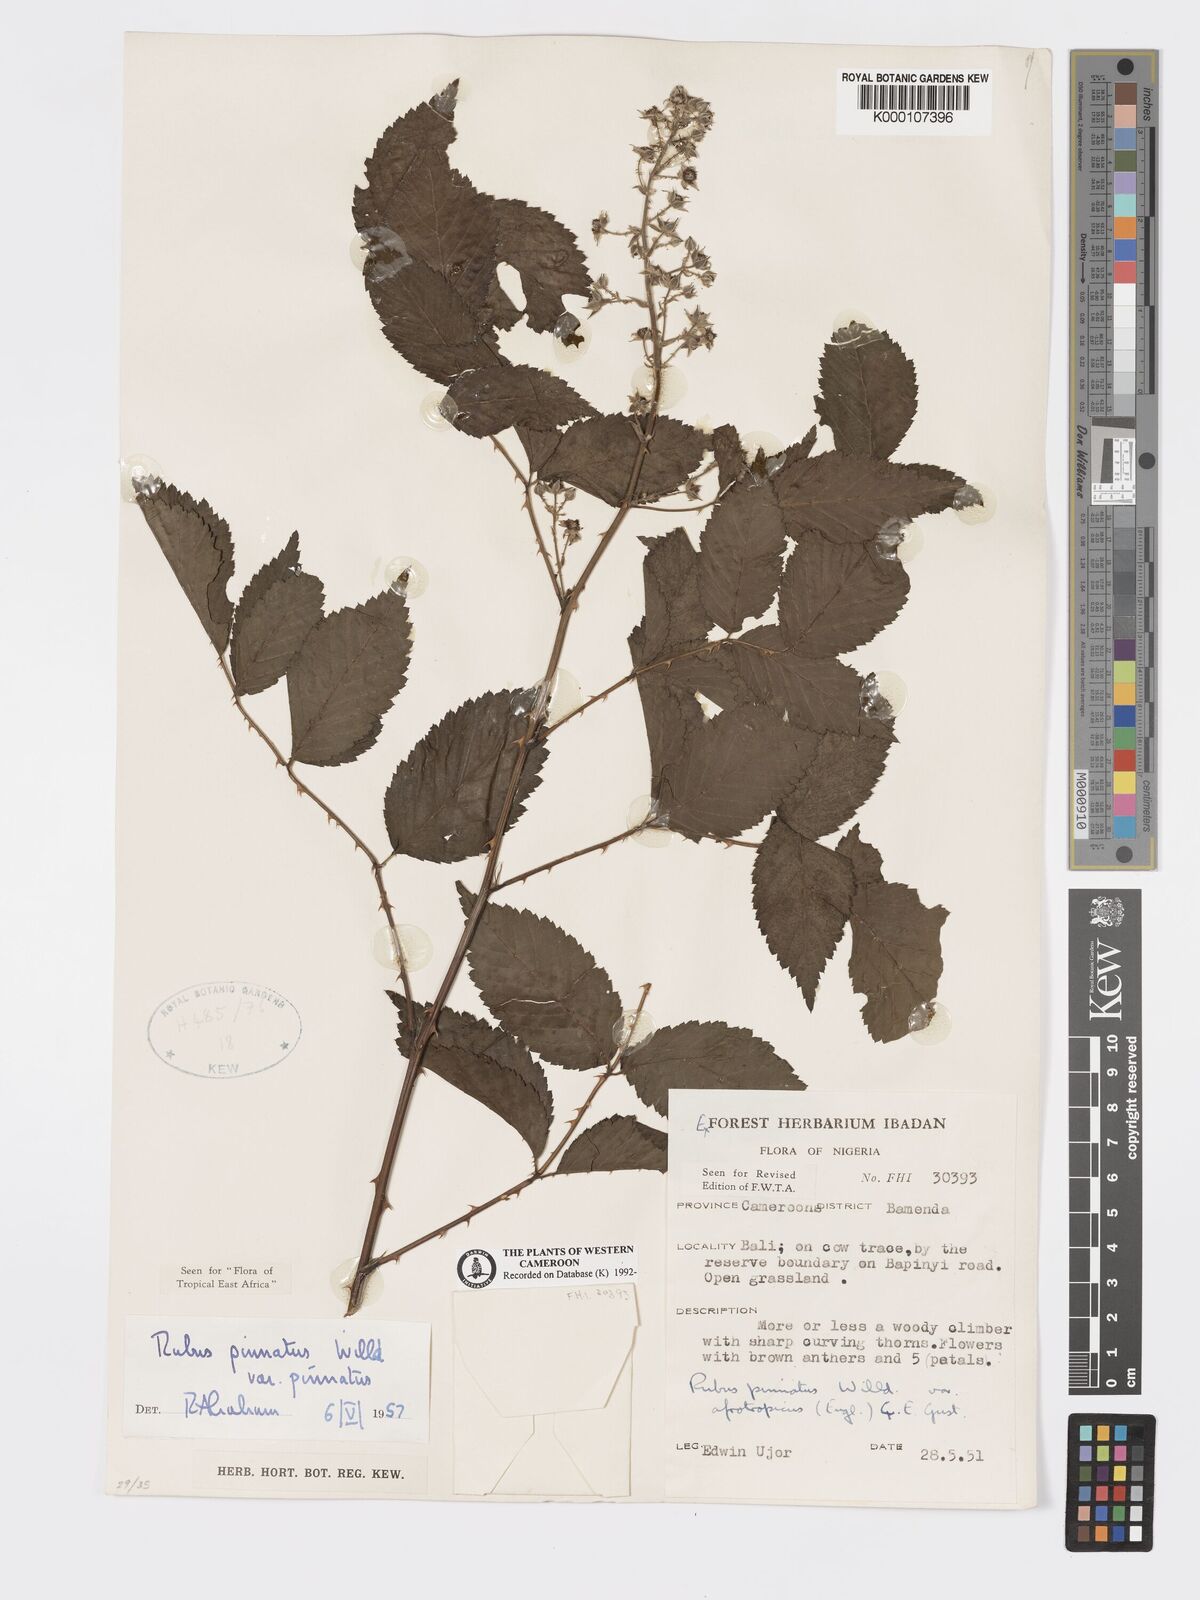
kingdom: Plantae
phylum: Tracheophyta
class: Magnoliopsida
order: Rosales
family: Rosaceae
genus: Rubus
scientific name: Rubus pinnatus
